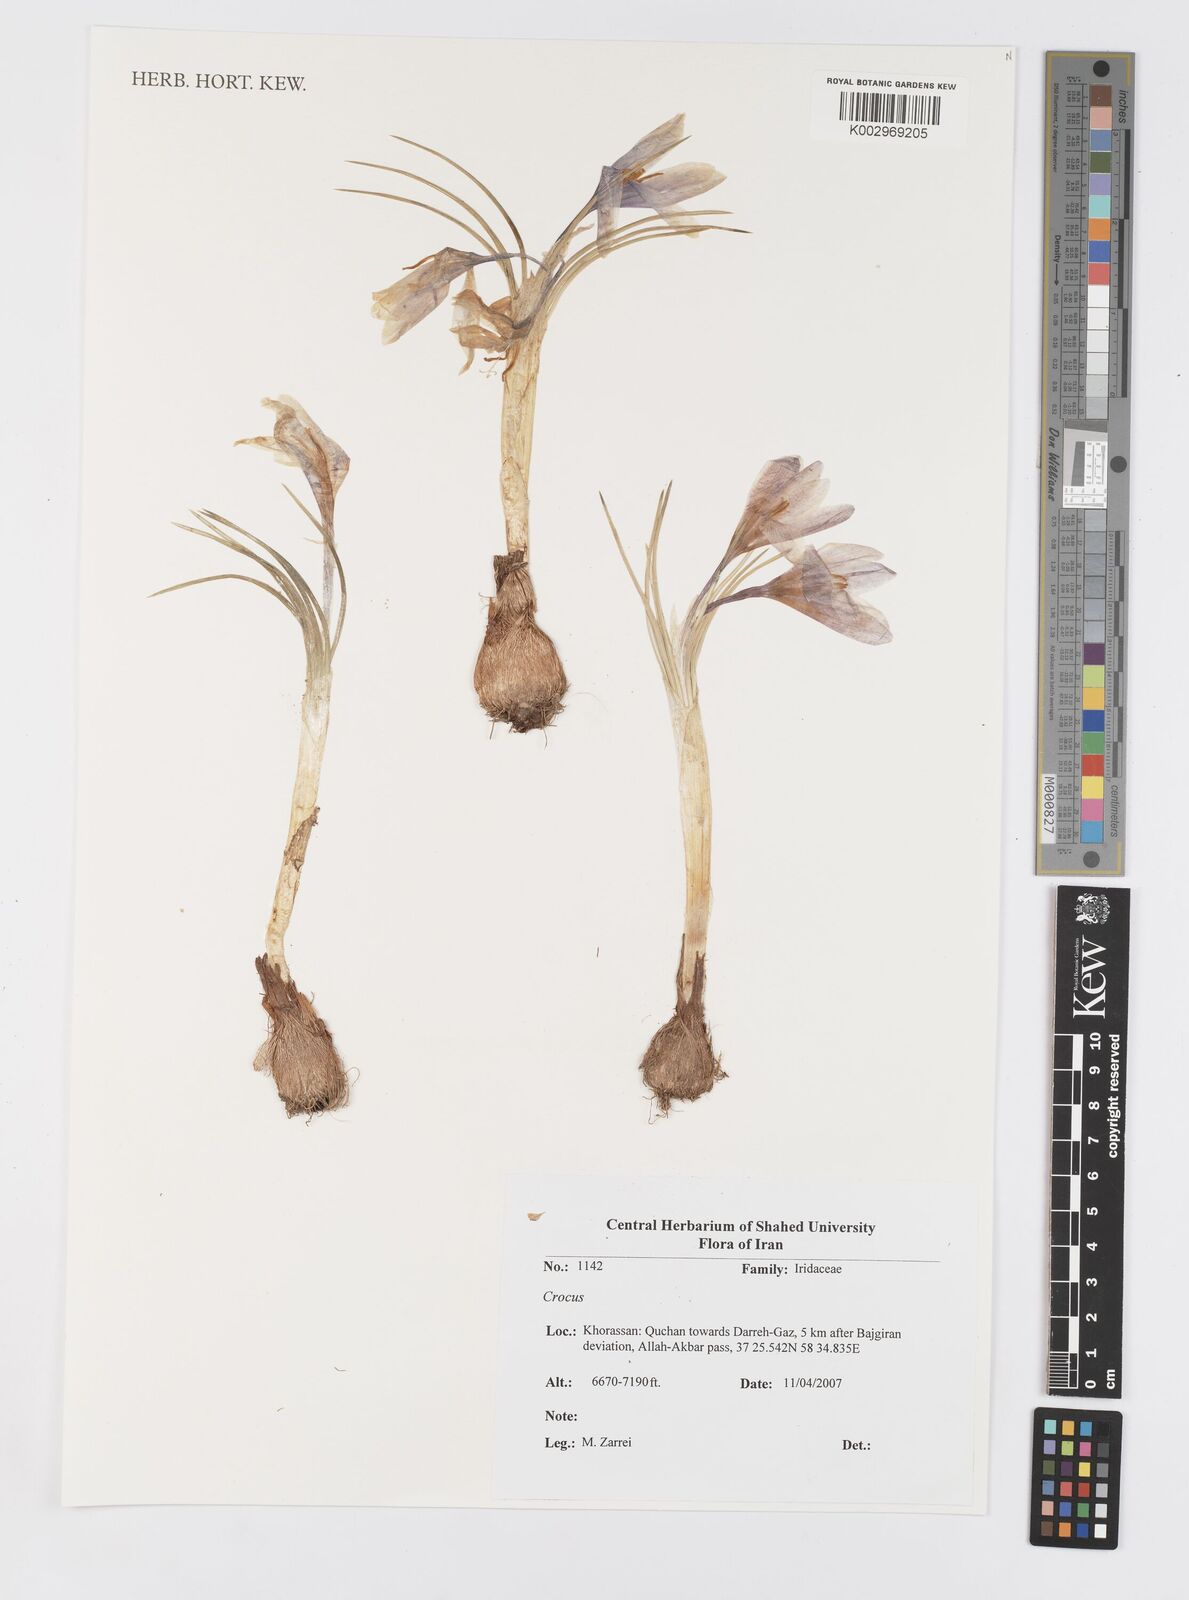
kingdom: Plantae
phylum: Tracheophyta
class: Liliopsida
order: Asparagales
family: Iridaceae
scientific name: Iridaceae
